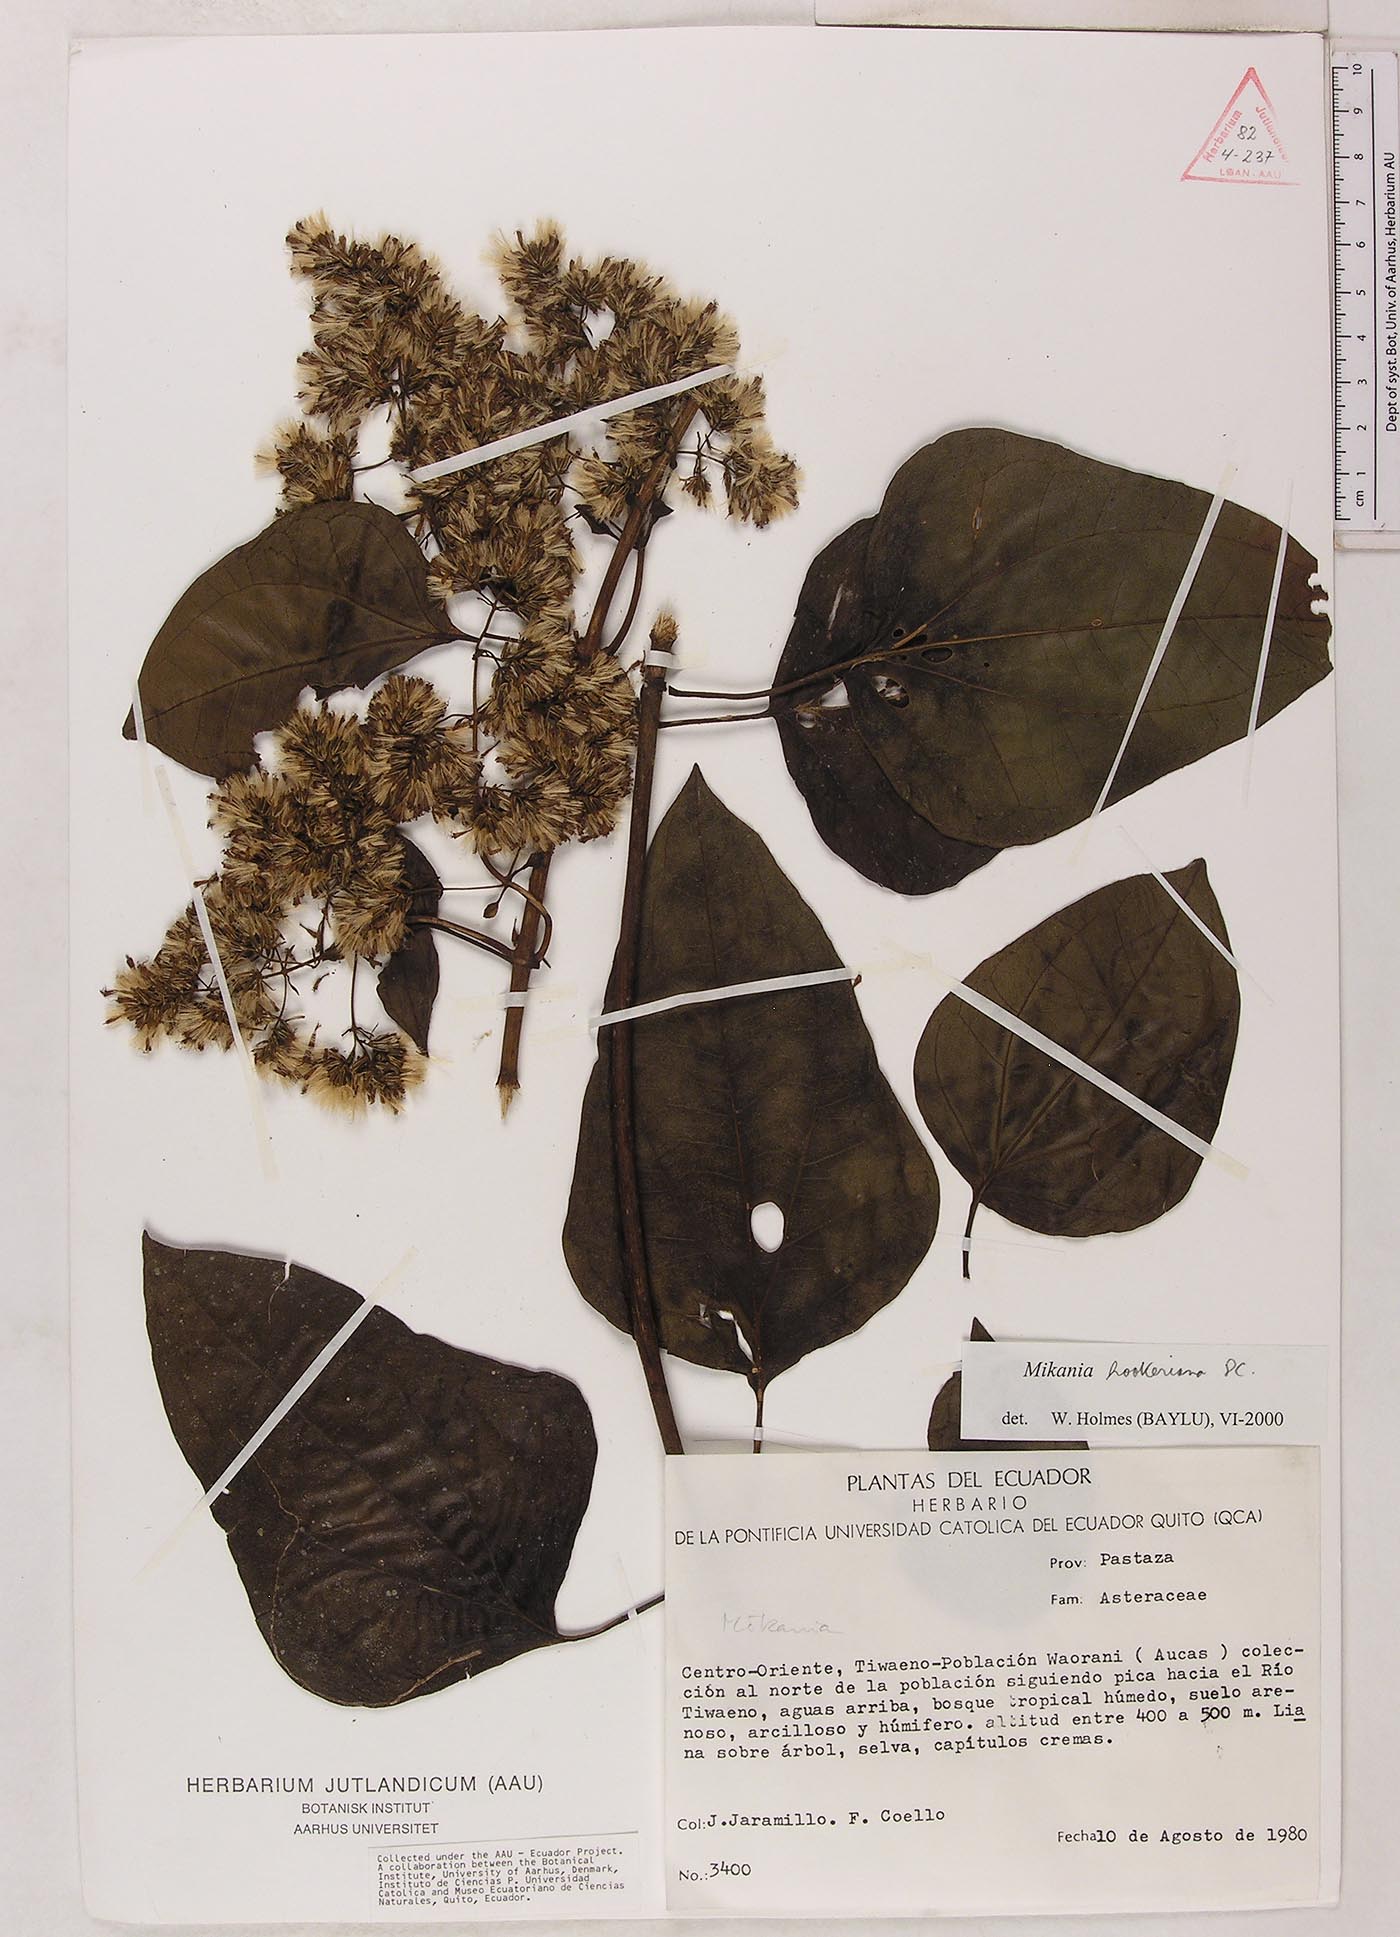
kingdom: Plantae
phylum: Tracheophyta
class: Magnoliopsida
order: Asterales
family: Asteraceae
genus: Mikania
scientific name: Mikania hookeriana
